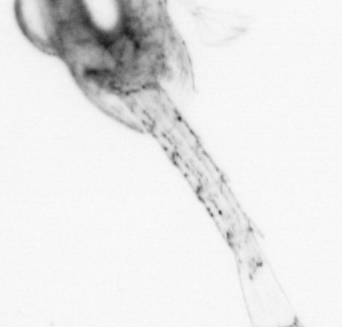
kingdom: Animalia
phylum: Arthropoda
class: Malacostraca
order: Decapoda
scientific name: Decapoda
